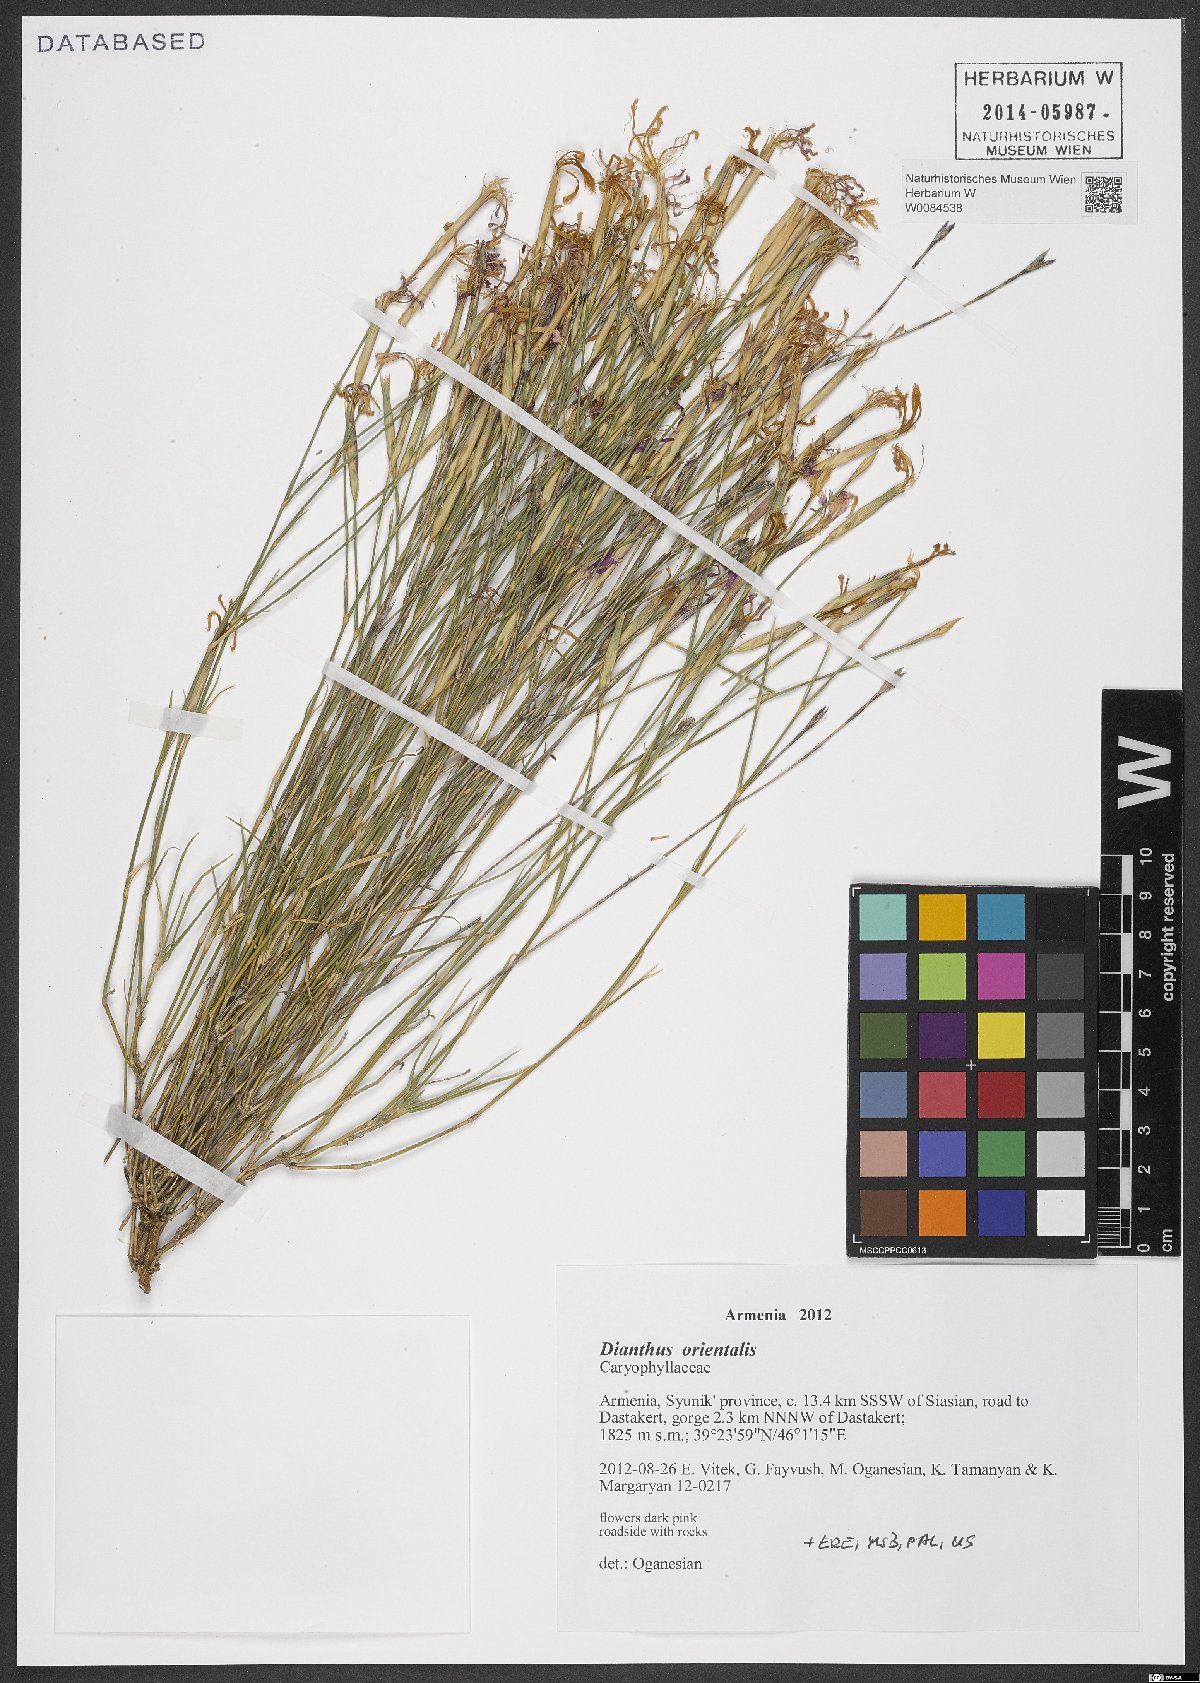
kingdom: Plantae
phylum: Tracheophyta
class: Magnoliopsida
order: Caryophyllales
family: Caryophyllaceae
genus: Dianthus
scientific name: Dianthus orientalis
